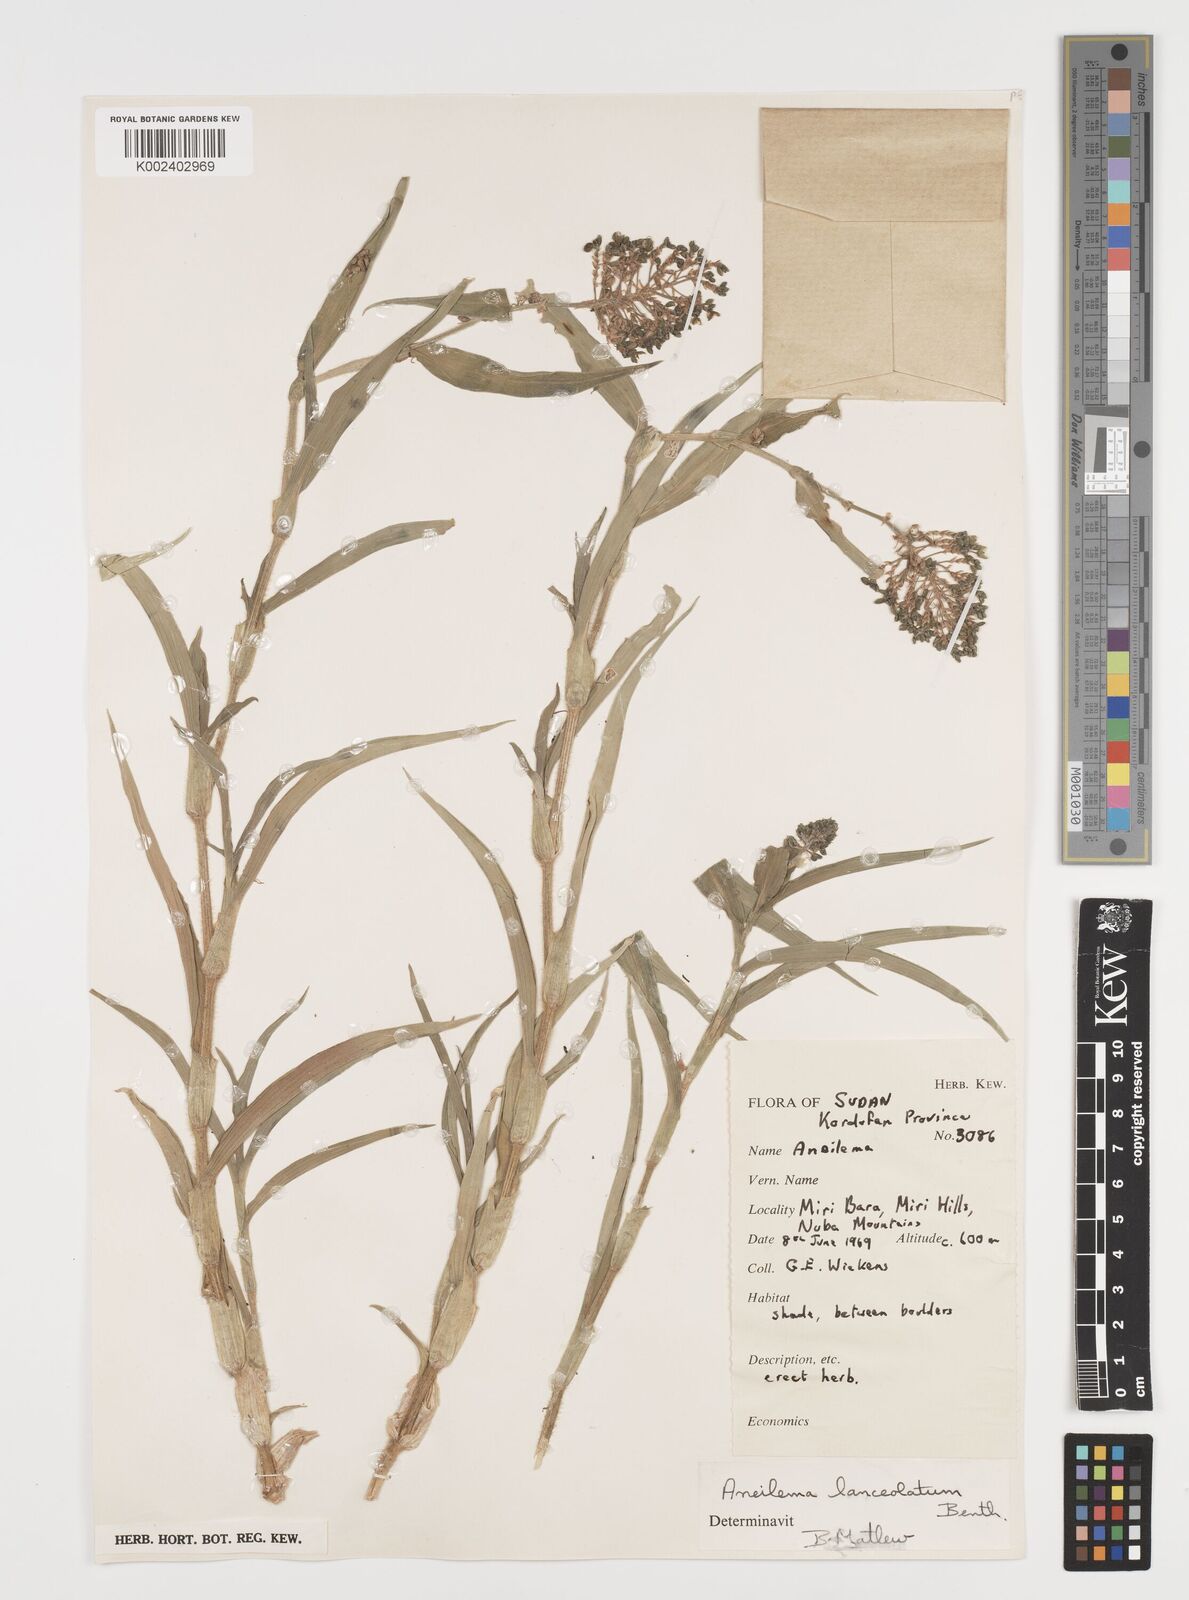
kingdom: Plantae
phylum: Tracheophyta
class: Liliopsida
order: Commelinales
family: Commelinaceae
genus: Aneilema
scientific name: Aneilema lanceolatum
